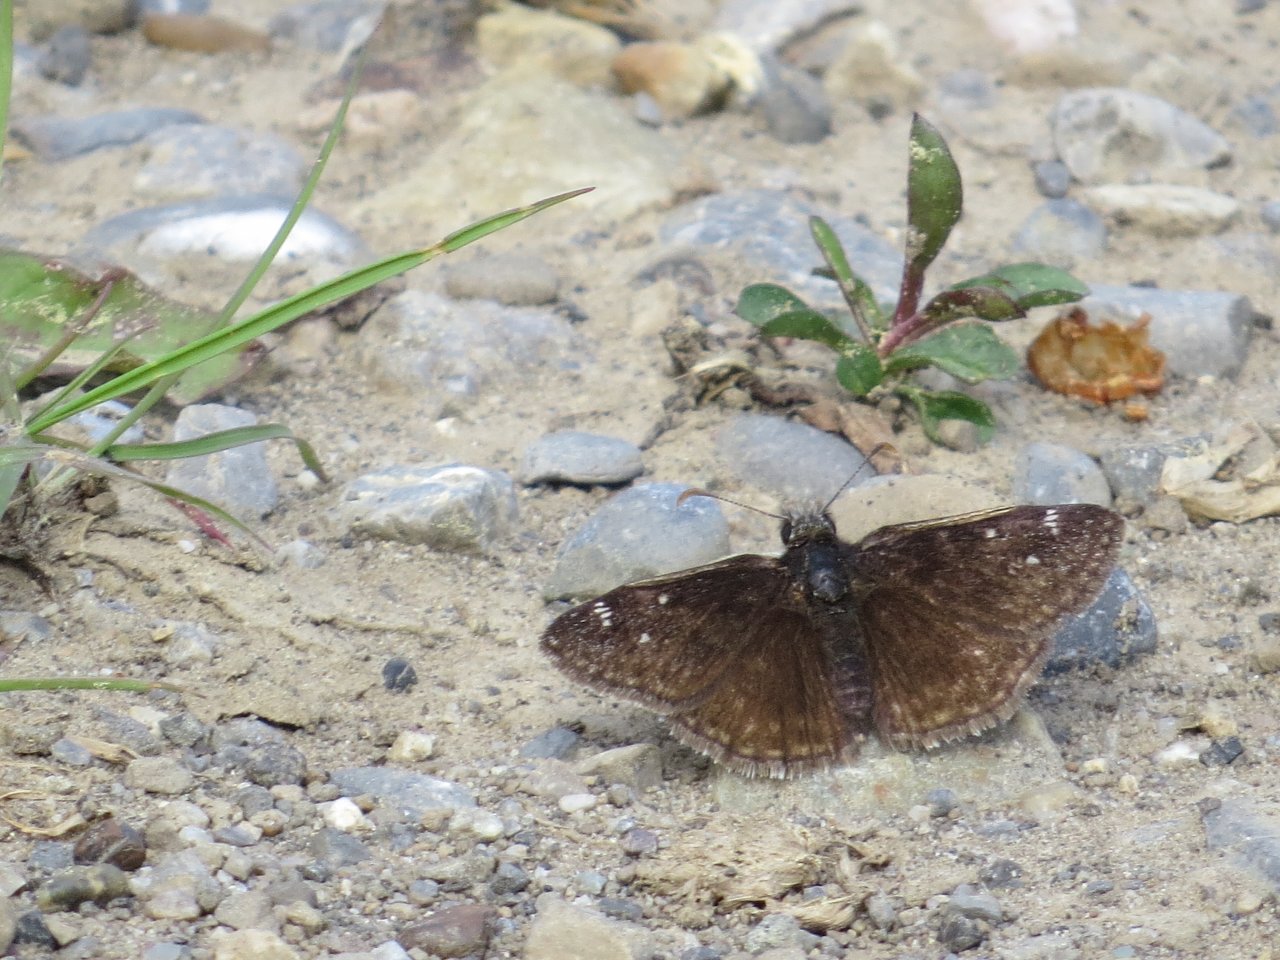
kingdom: Animalia
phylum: Arthropoda
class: Insecta
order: Lepidoptera
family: Hesperiidae
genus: Gesta
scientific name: Gesta
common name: Persius Duskywing
